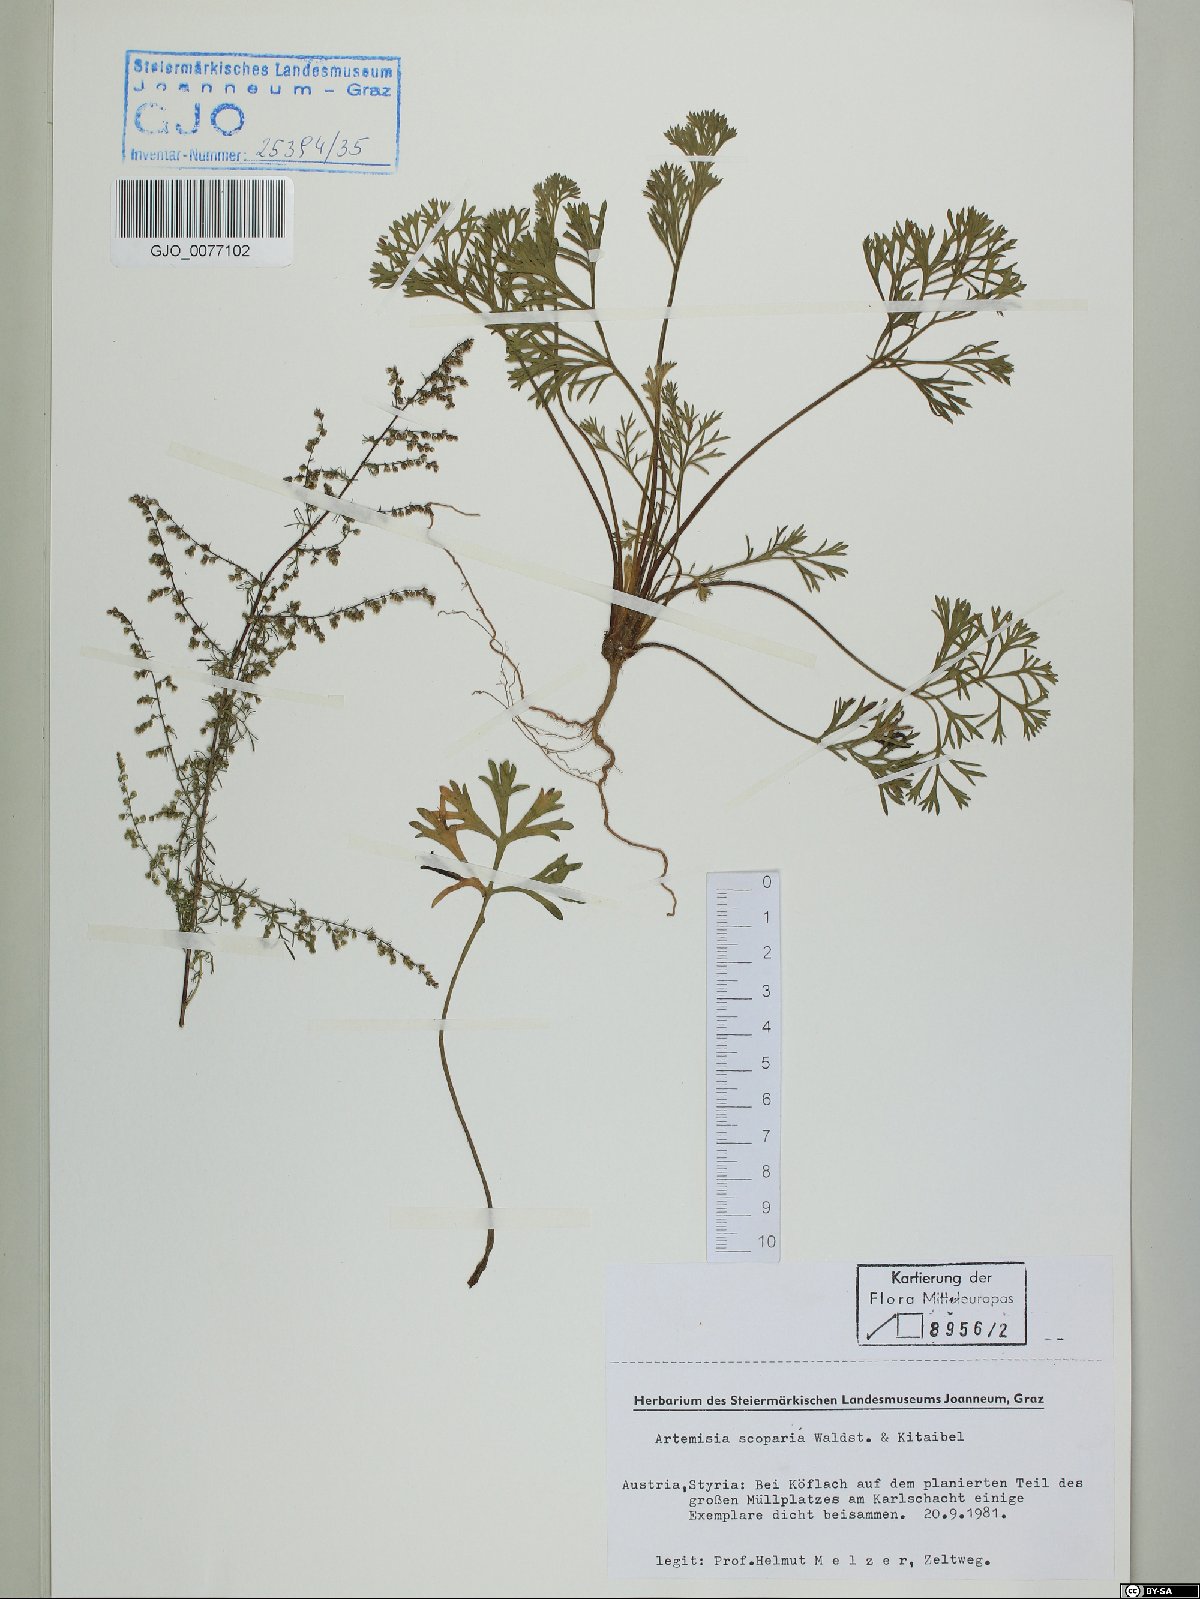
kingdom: Plantae
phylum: Tracheophyta
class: Magnoliopsida
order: Asterales
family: Asteraceae
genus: Artemisia
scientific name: Artemisia scoparia
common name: Redstem wormwood
